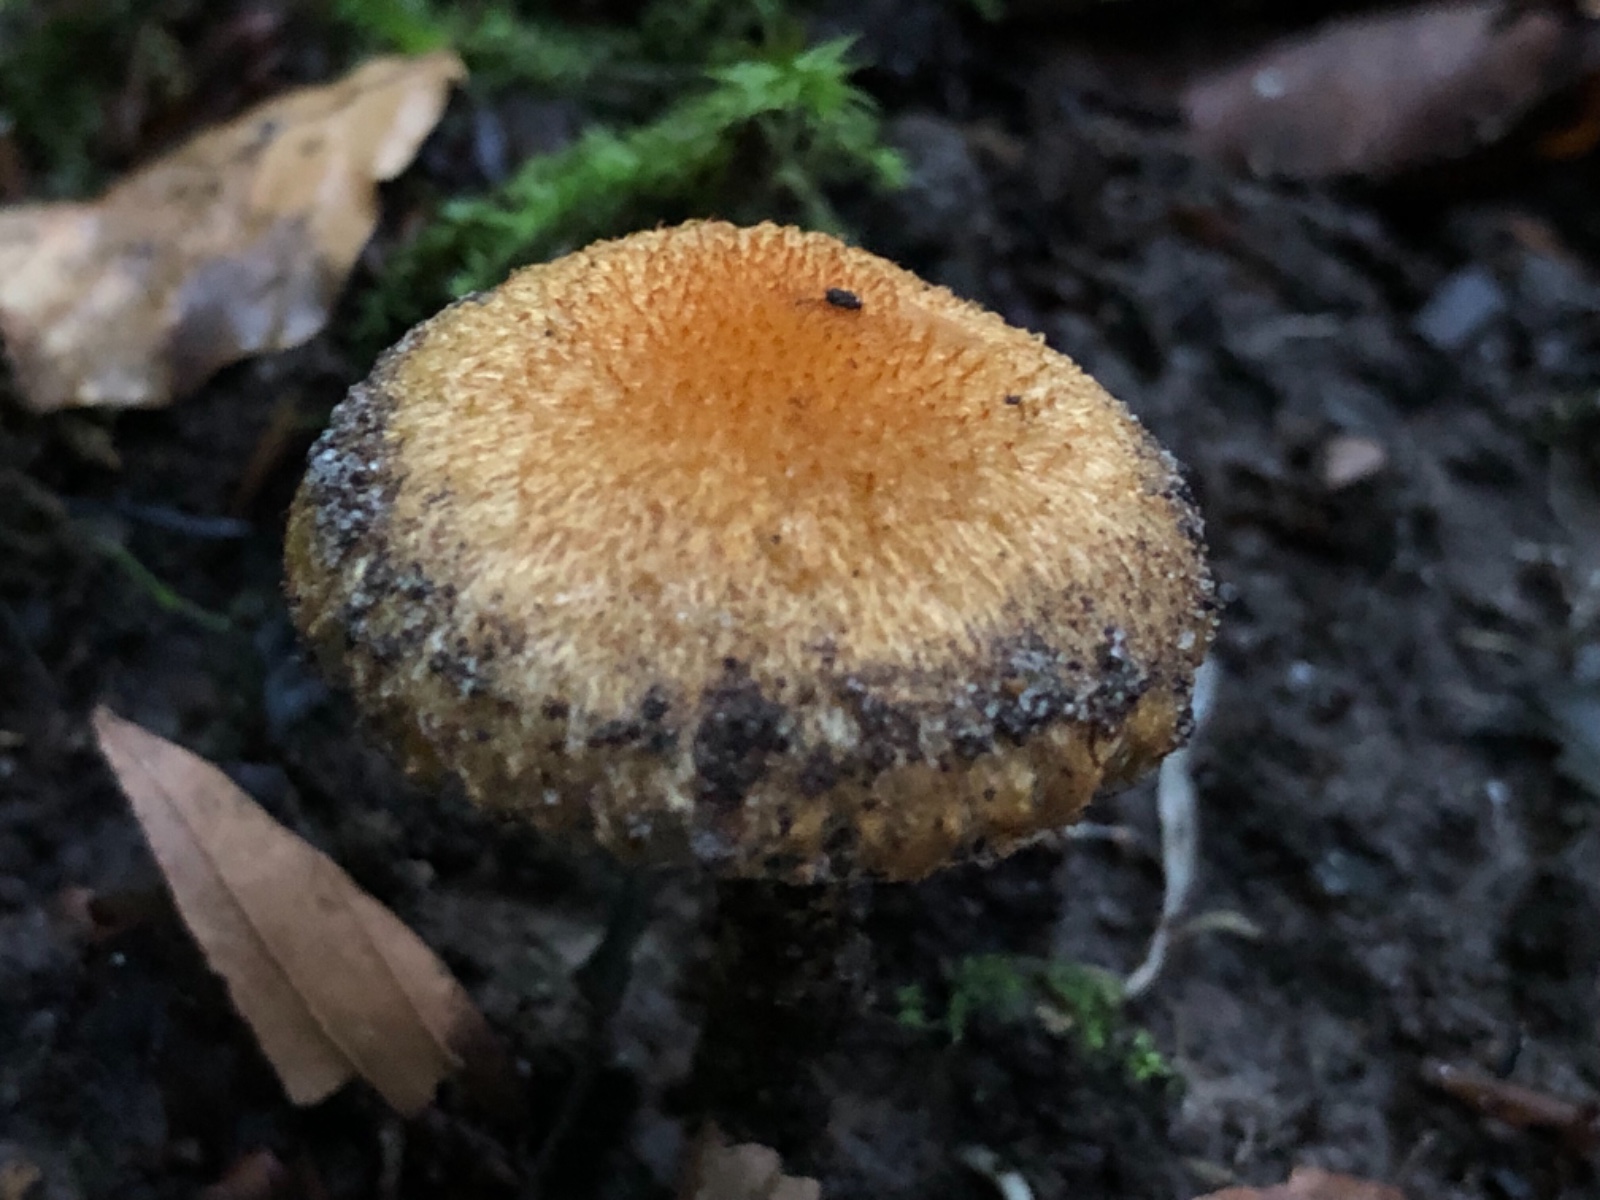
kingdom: Fungi
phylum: Basidiomycota
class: Agaricomycetes
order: Agaricales
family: Psathyrellaceae
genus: Lacrymaria
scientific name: Lacrymaria pyrotricha
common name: ildhåret mørkhat
